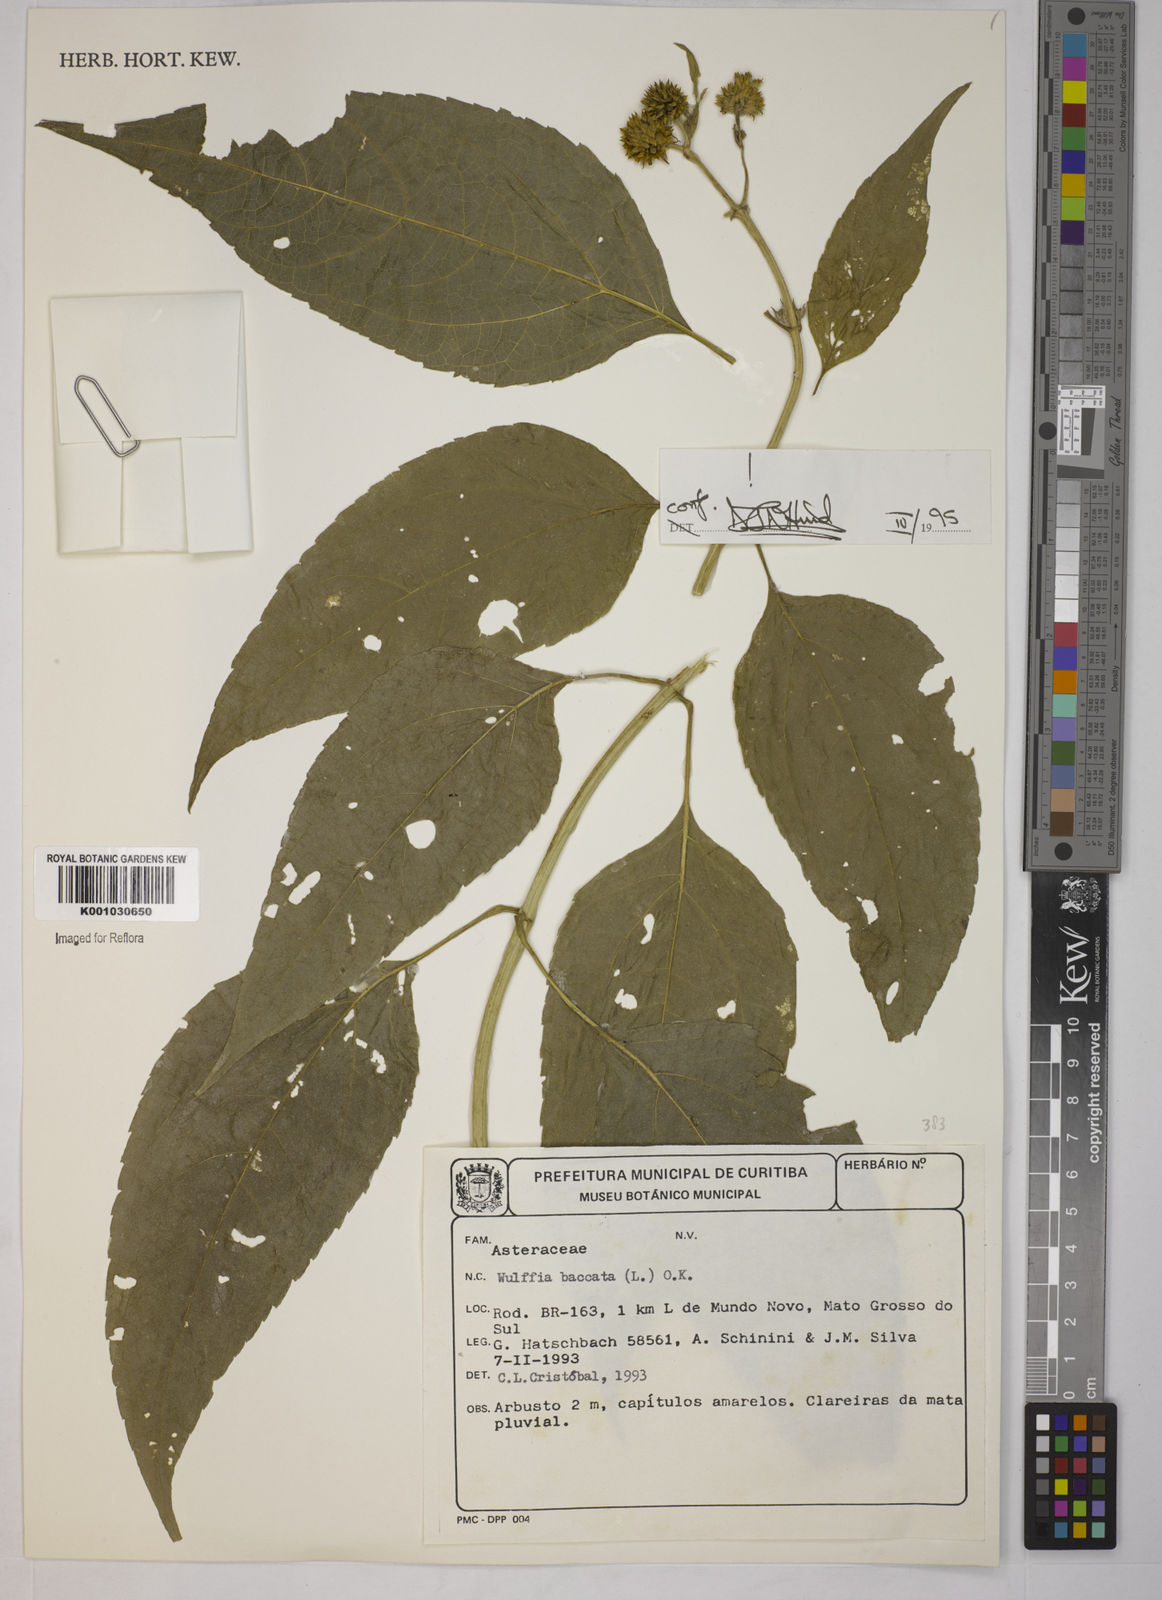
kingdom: Plantae
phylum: Tracheophyta
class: Magnoliopsida
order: Asterales
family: Asteraceae
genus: Tilesia
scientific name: Tilesia baccata
